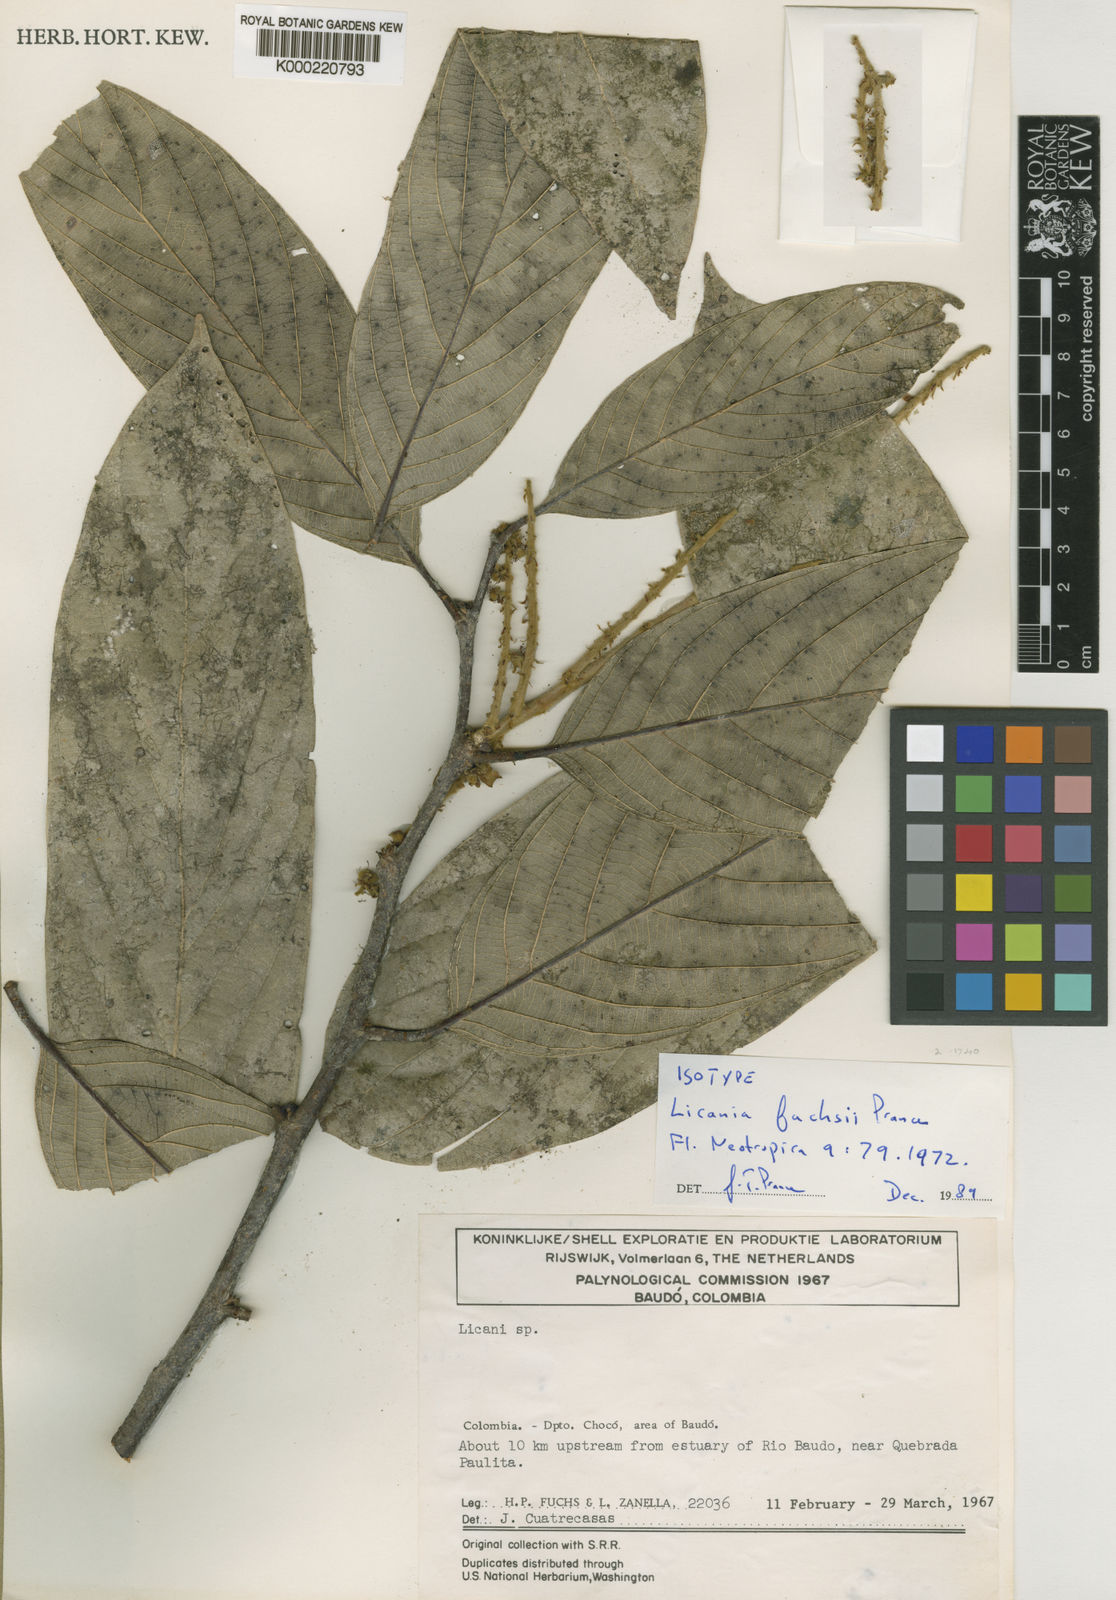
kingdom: Plantae
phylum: Tracheophyta
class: Magnoliopsida
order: Malpighiales
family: Chrysobalanaceae
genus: Leptobalanus
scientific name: Leptobalanus fuchsii
